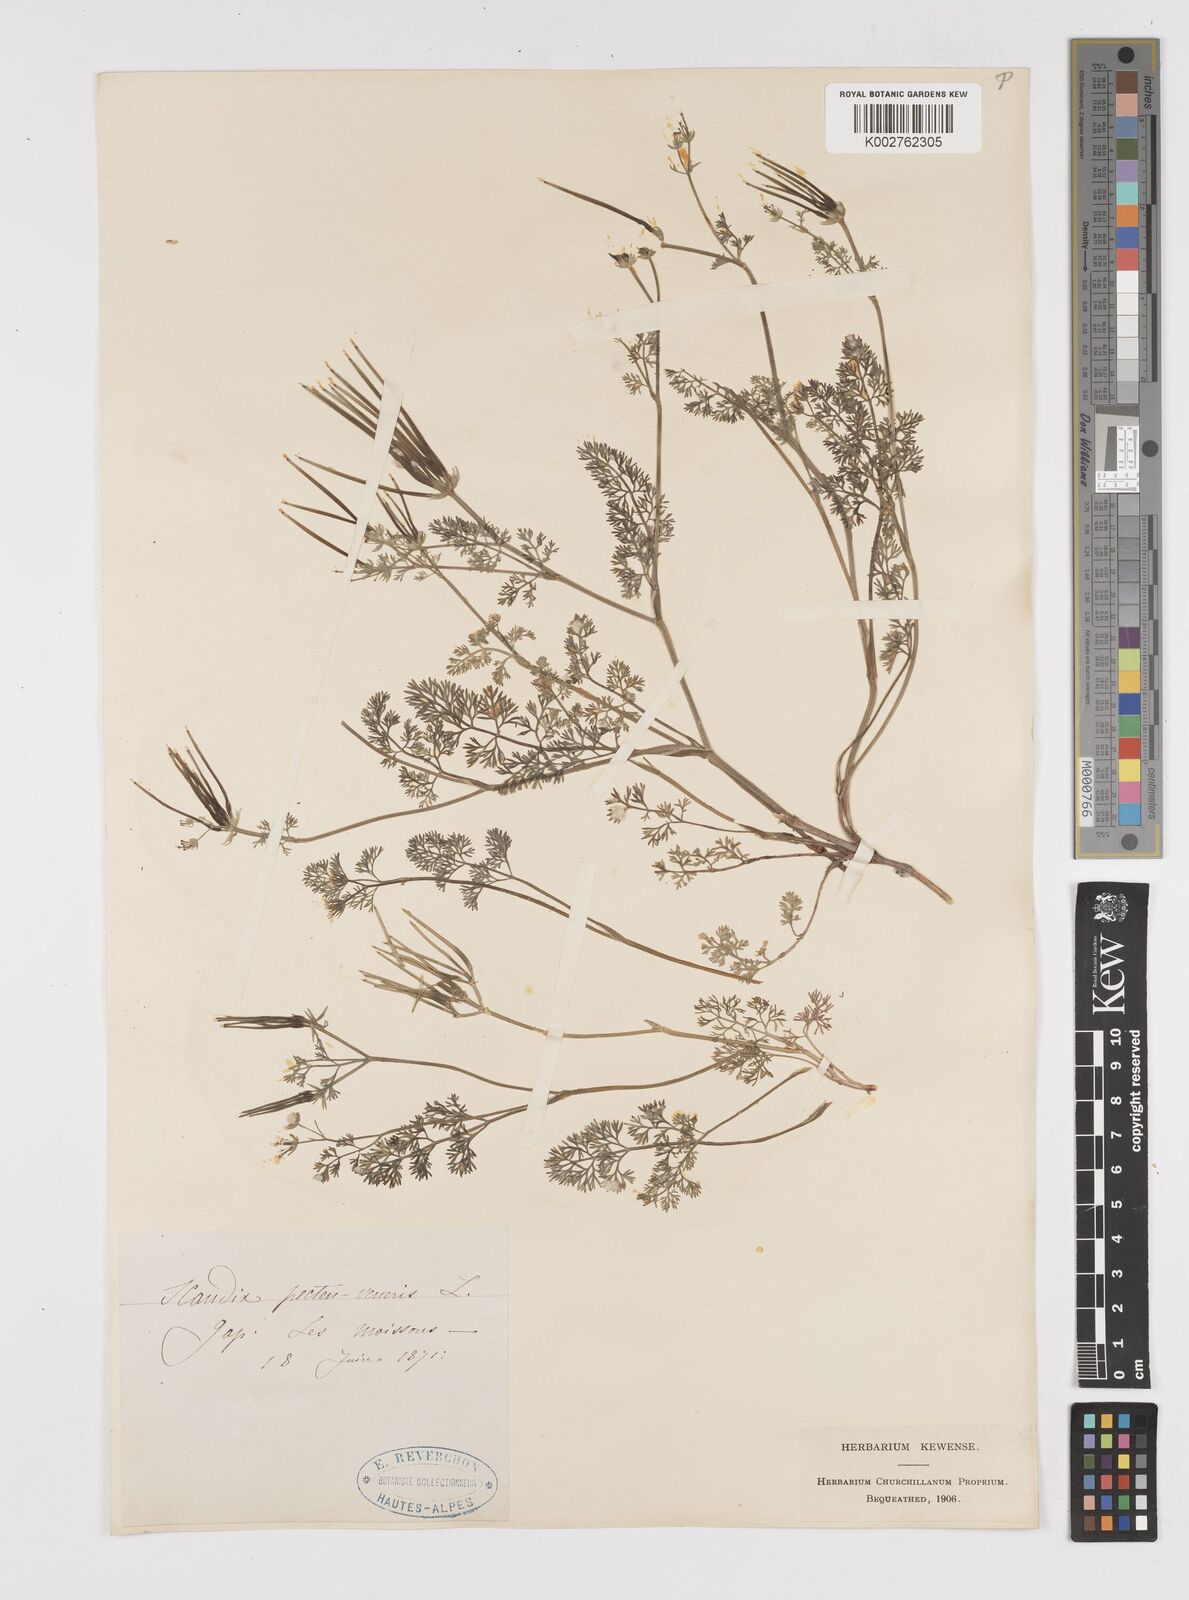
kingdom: Plantae
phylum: Tracheophyta
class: Magnoliopsida
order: Apiales
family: Apiaceae
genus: Scandix
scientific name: Scandix pecten-veneris
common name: Shepherd's-needle
